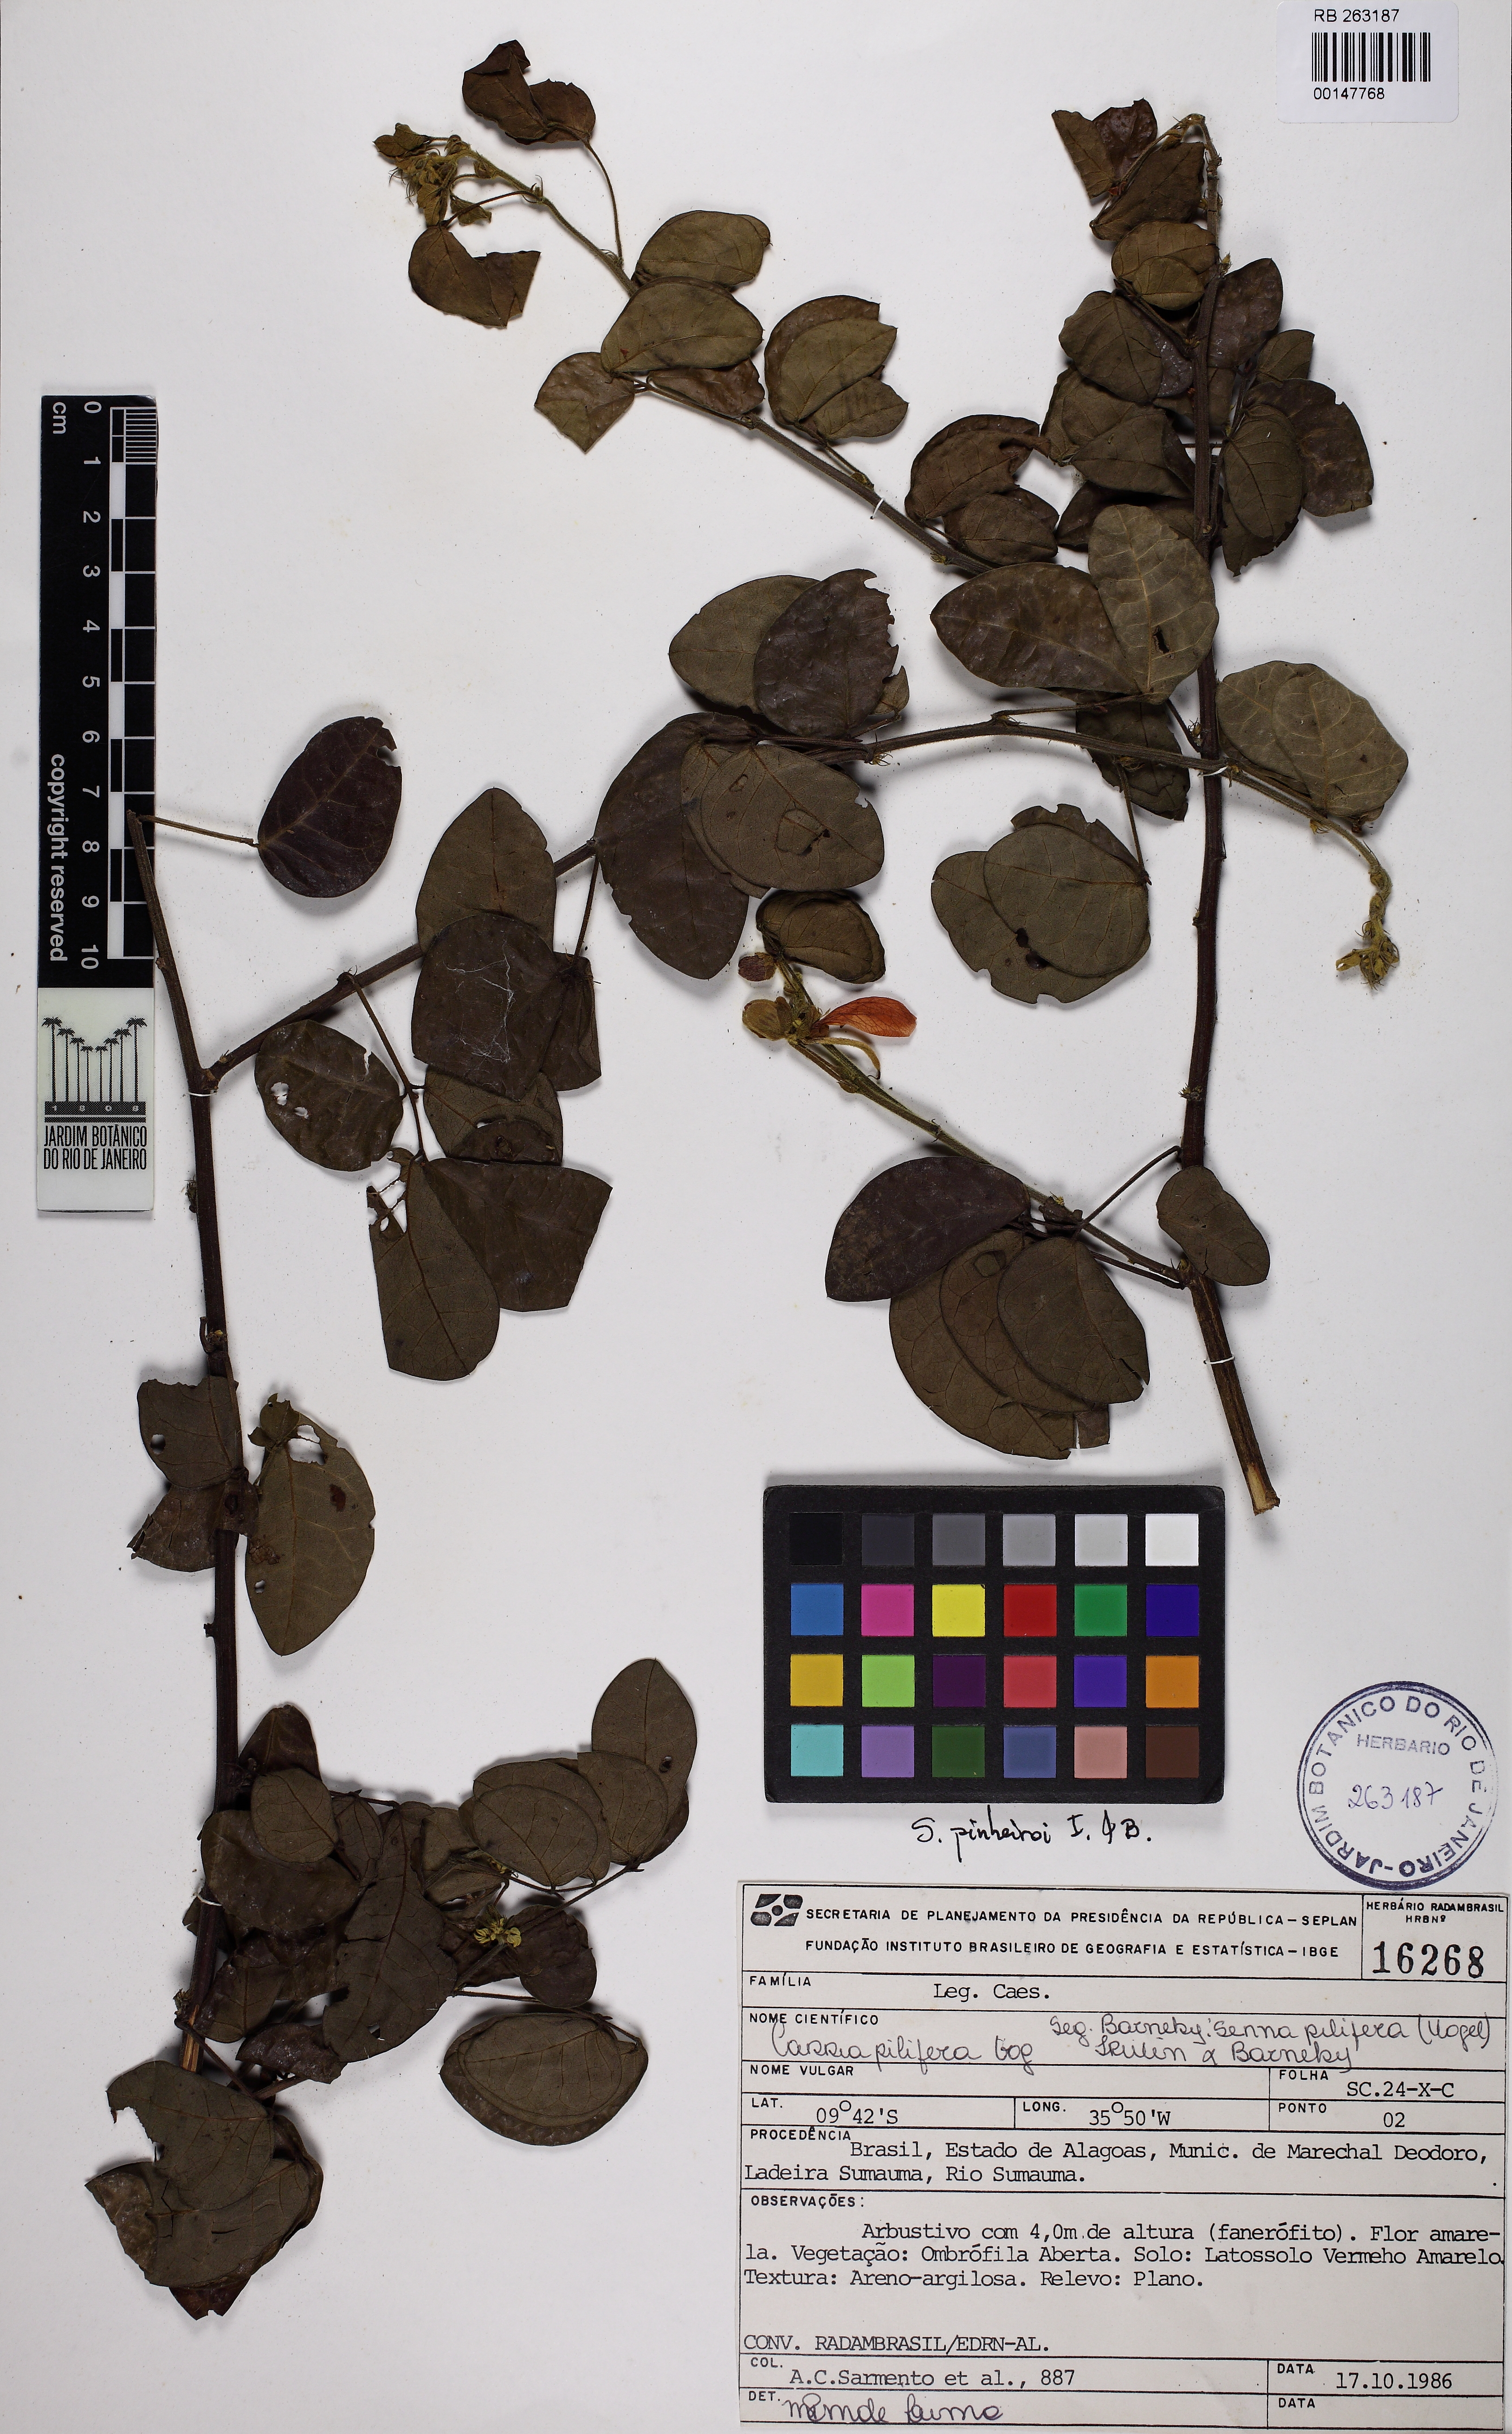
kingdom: Plantae
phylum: Tracheophyta
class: Magnoliopsida
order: Fabales
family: Fabaceae
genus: Senna
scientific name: Senna chrysocarpa
